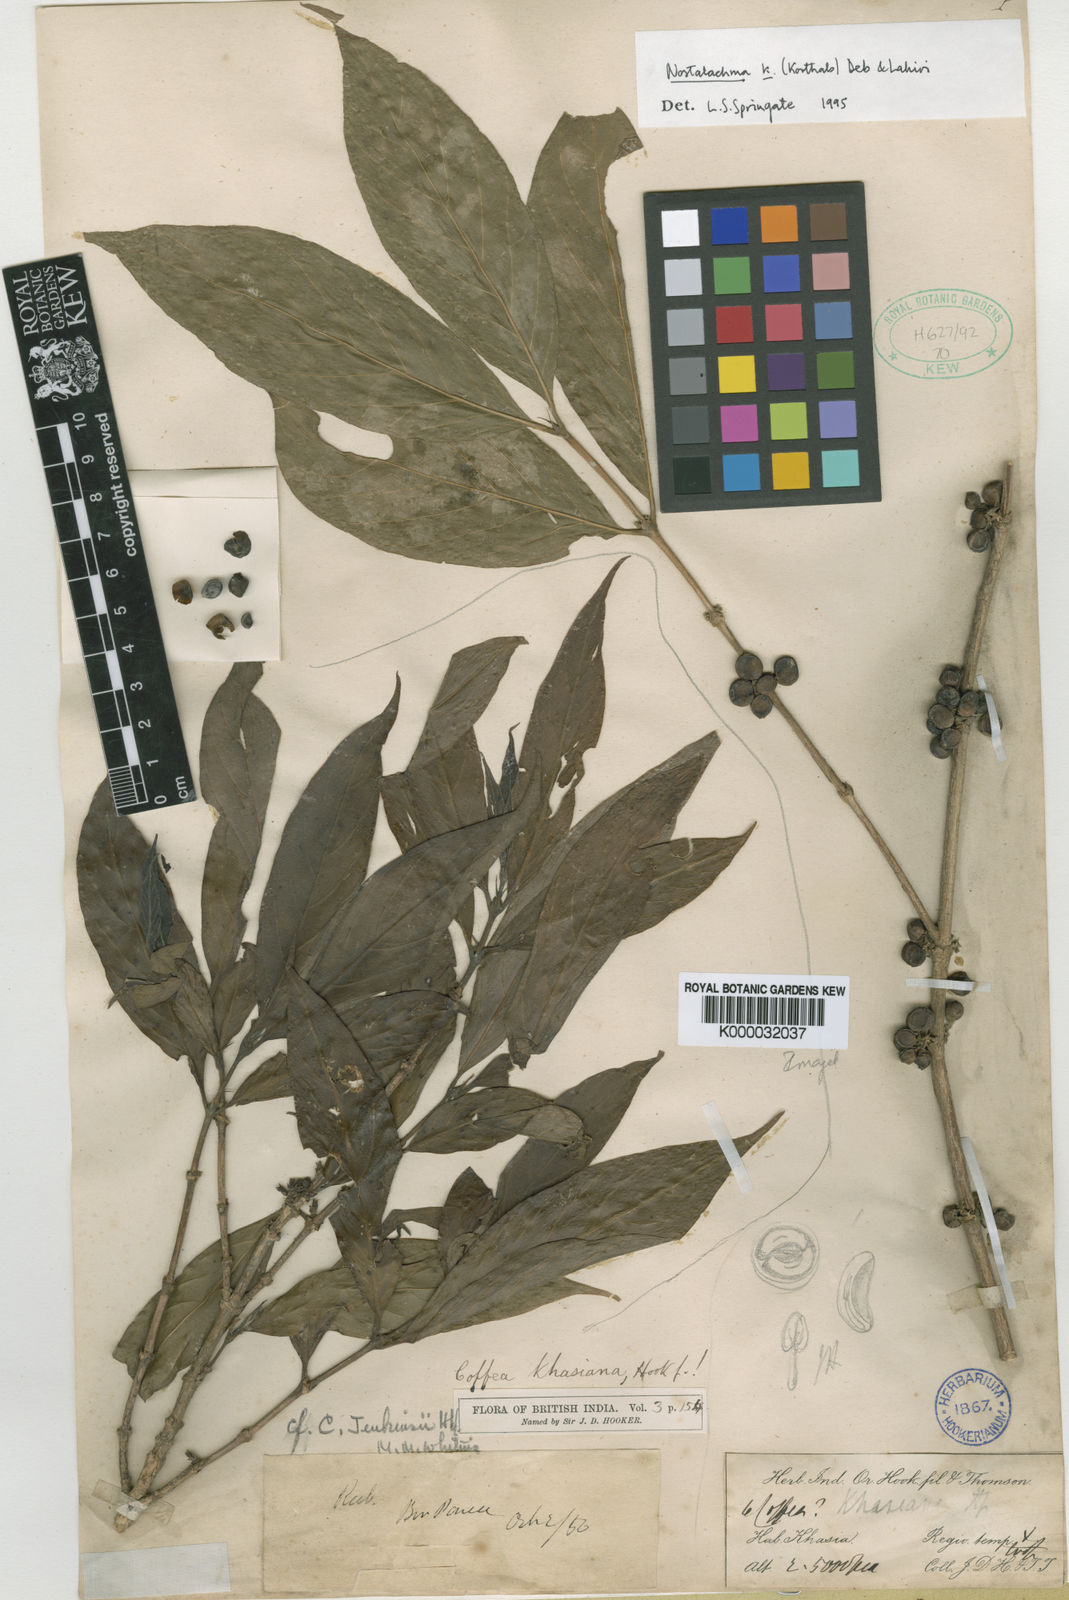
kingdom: Plantae
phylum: Tracheophyta
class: Magnoliopsida
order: Gentianales
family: Rubiaceae
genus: Nostolachma
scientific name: Nostolachma triflorum
